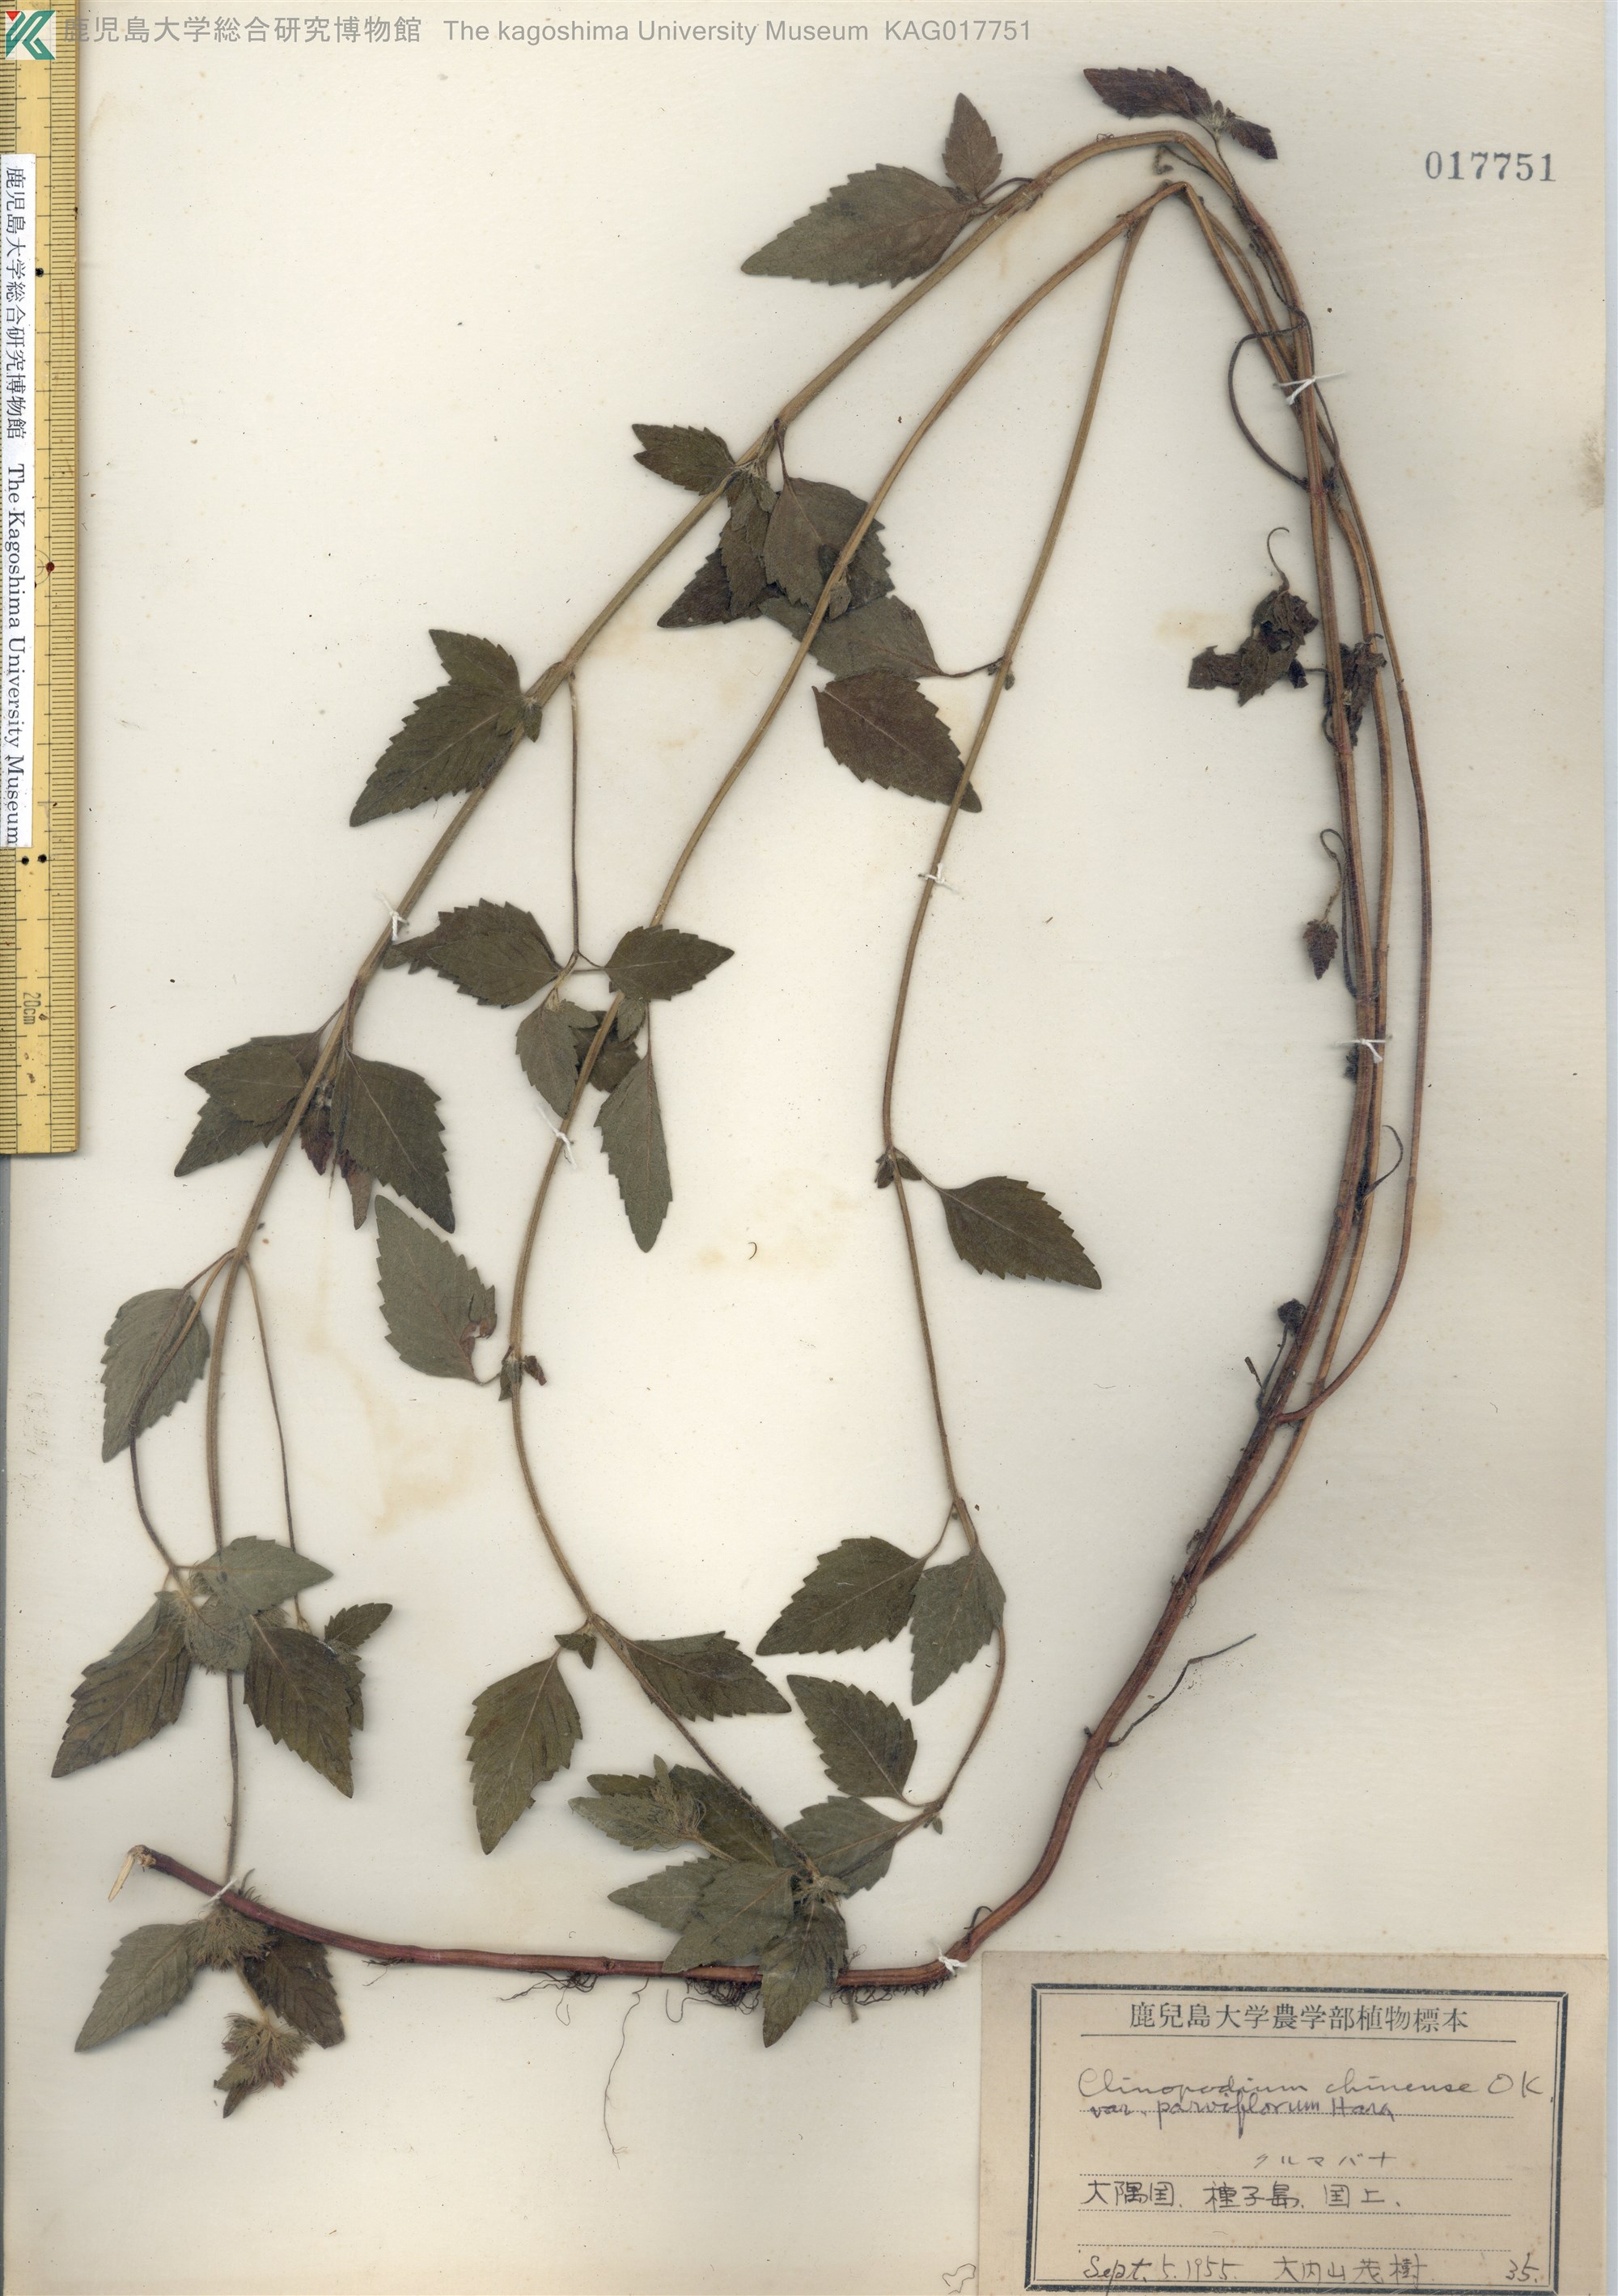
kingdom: Plantae
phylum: Tracheophyta
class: Magnoliopsida
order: Lamiales
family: Lamiaceae
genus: Clinopodium
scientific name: Clinopodium chinense
